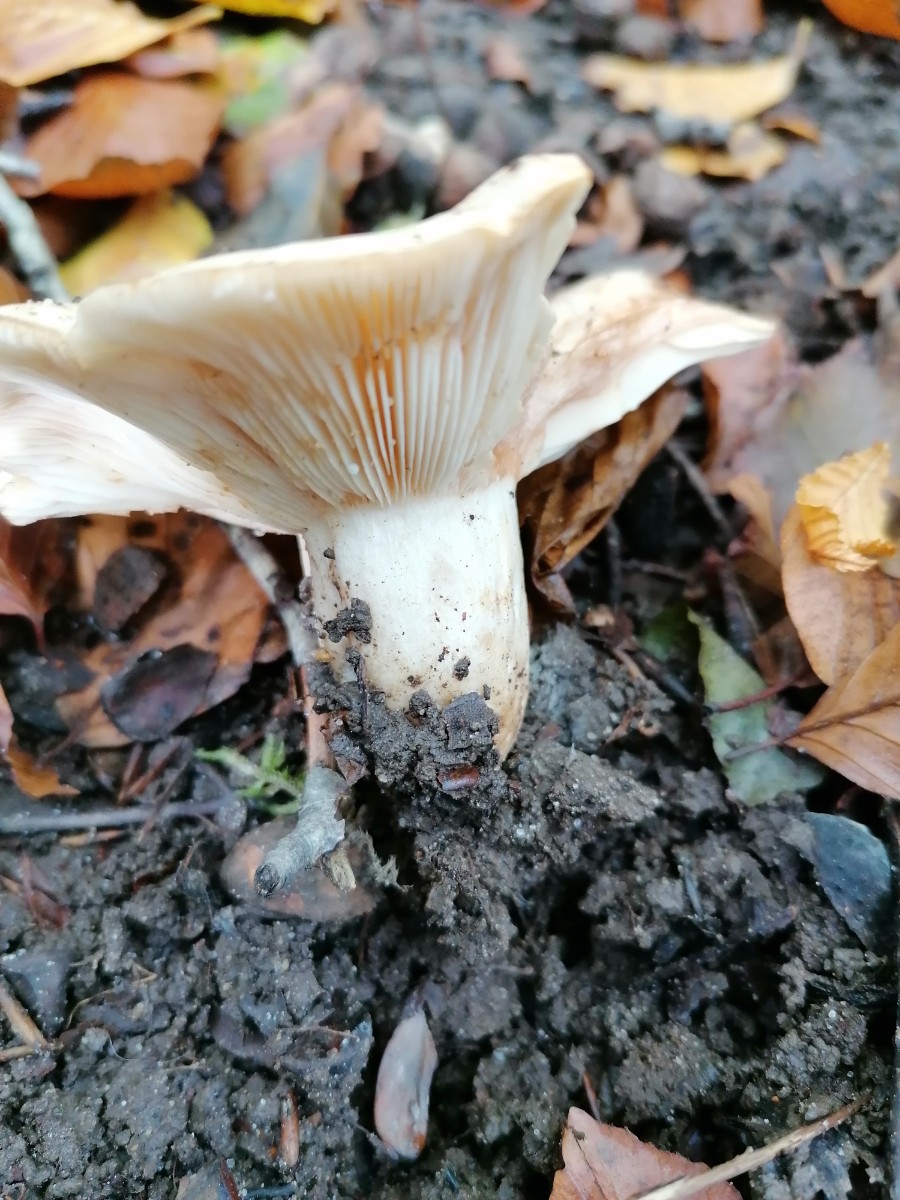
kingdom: Fungi
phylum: Basidiomycota
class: Agaricomycetes
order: Russulales
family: Russulaceae
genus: Lactarius
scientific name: Lactarius pallidus
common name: bleg mælkehat
